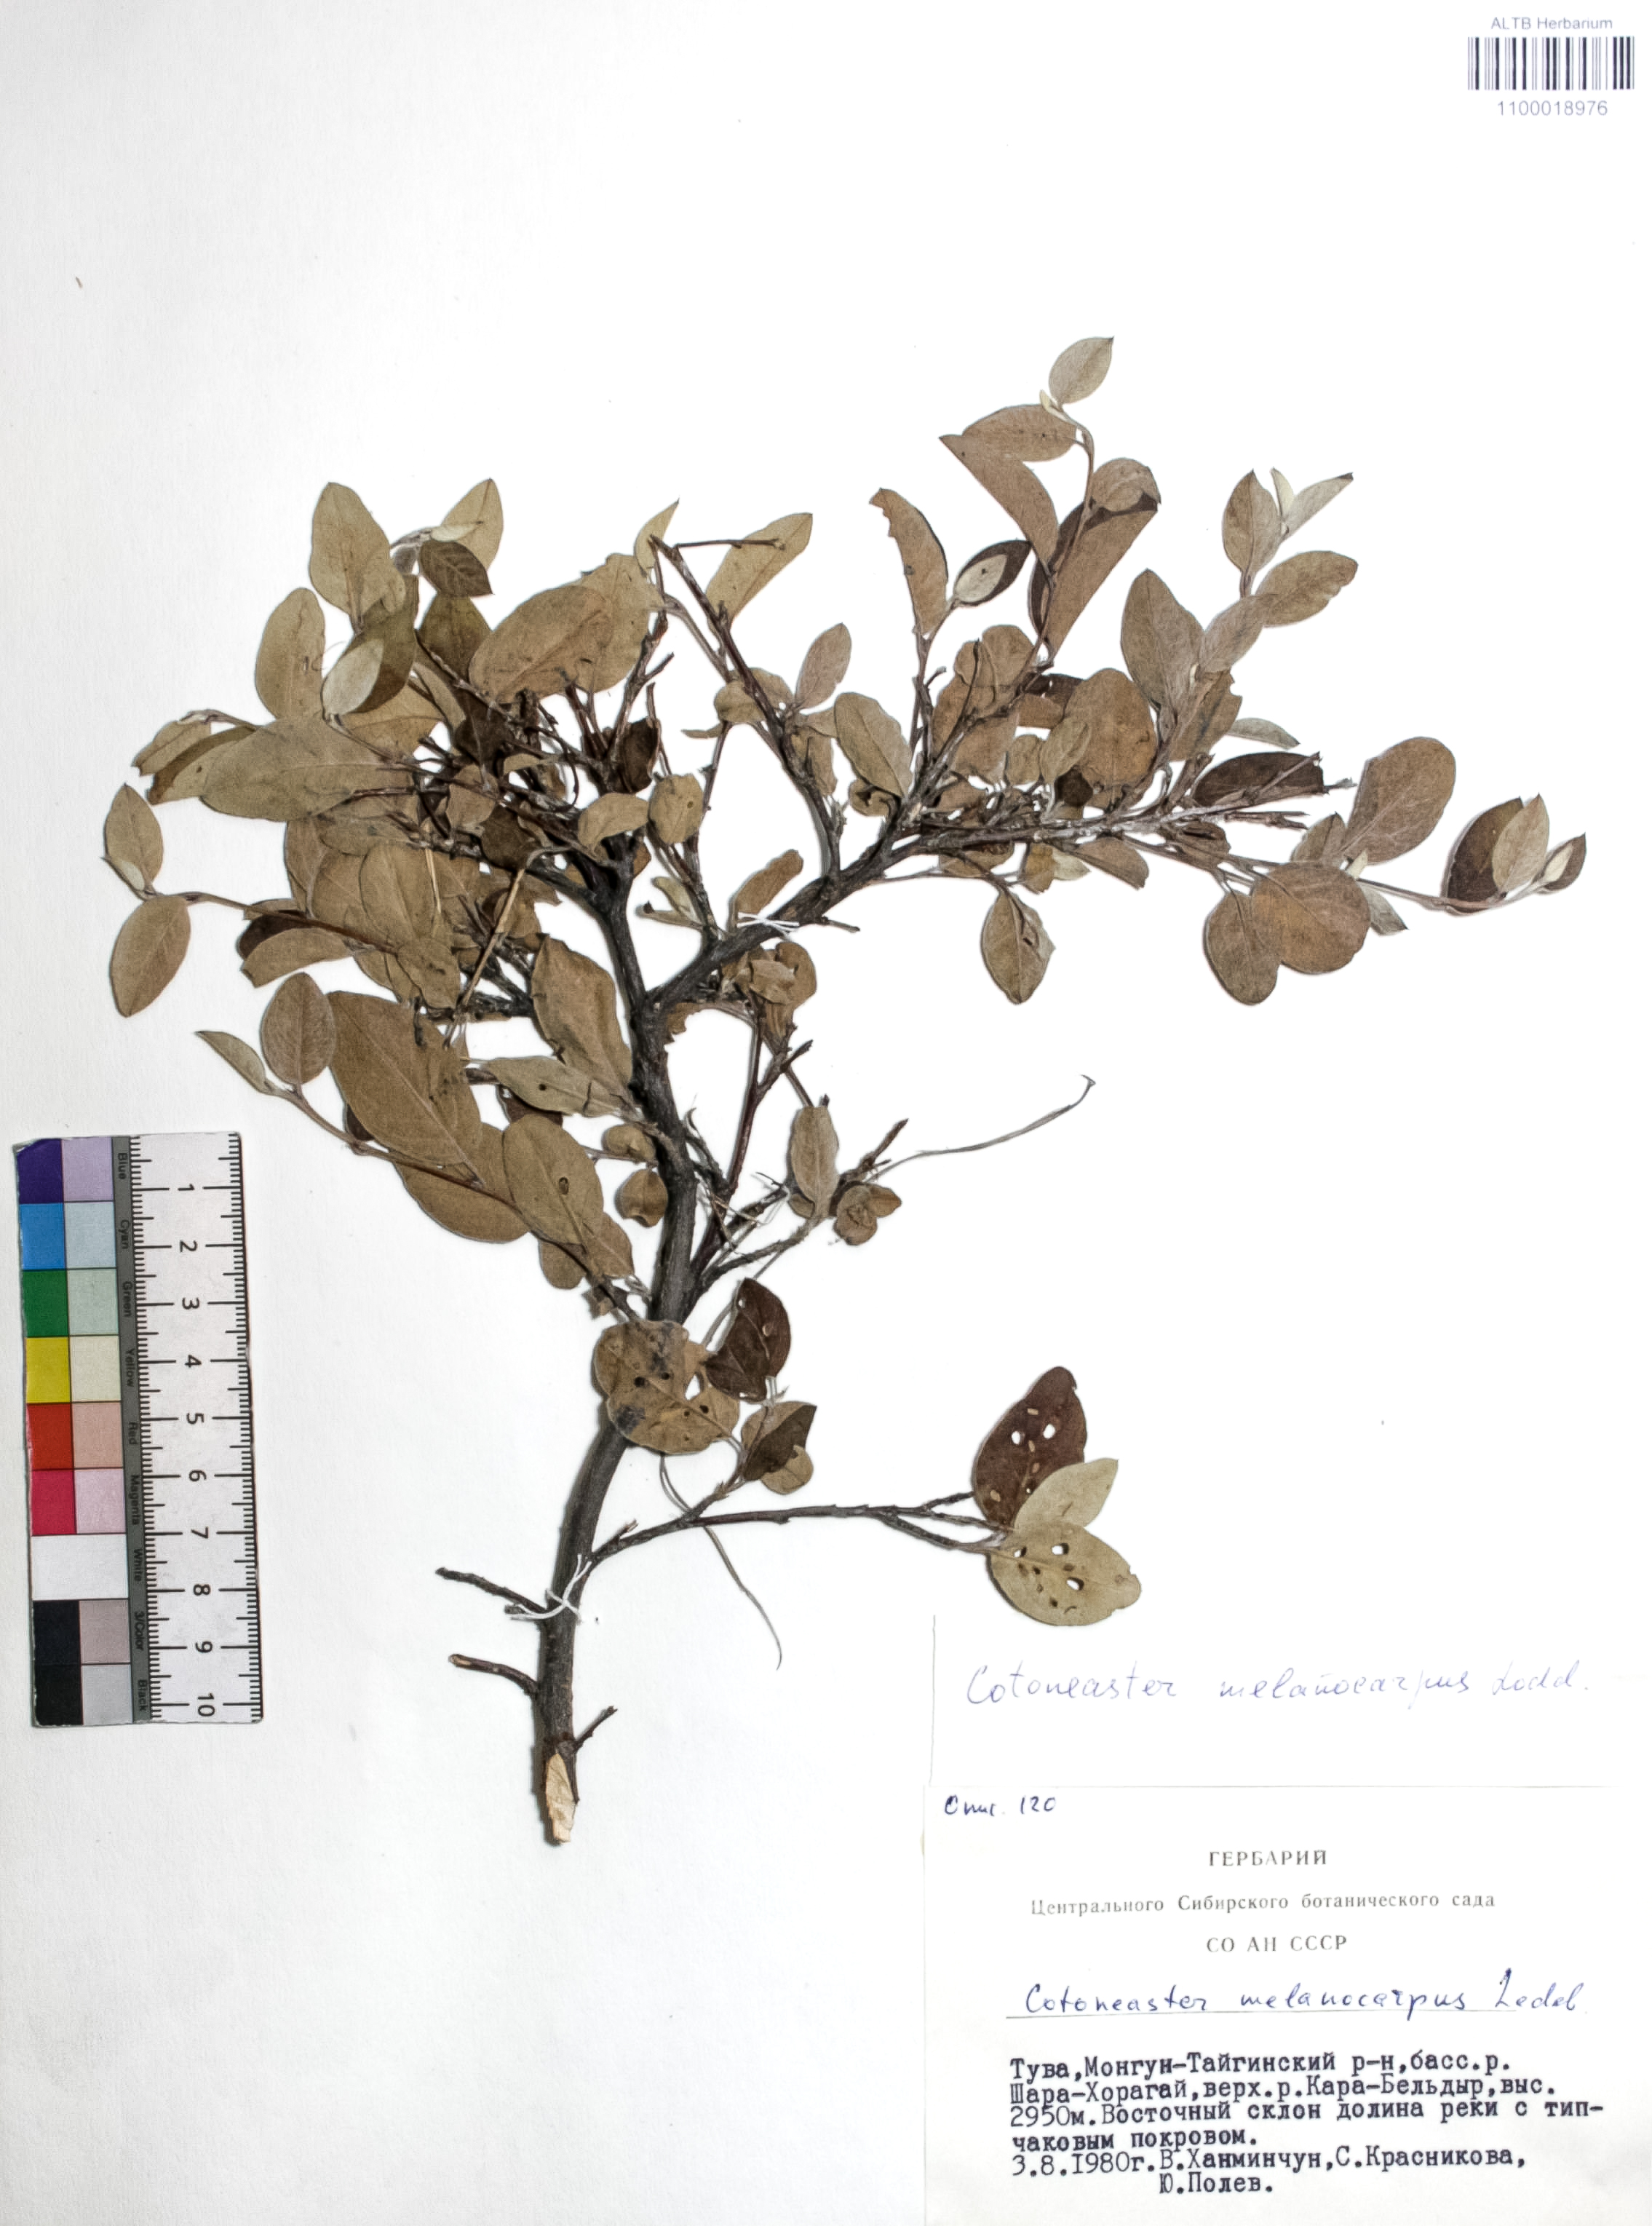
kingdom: Plantae
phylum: Tracheophyta
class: Magnoliopsida
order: Rosales
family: Rosaceae
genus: Cotoneaster
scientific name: Cotoneaster niger
